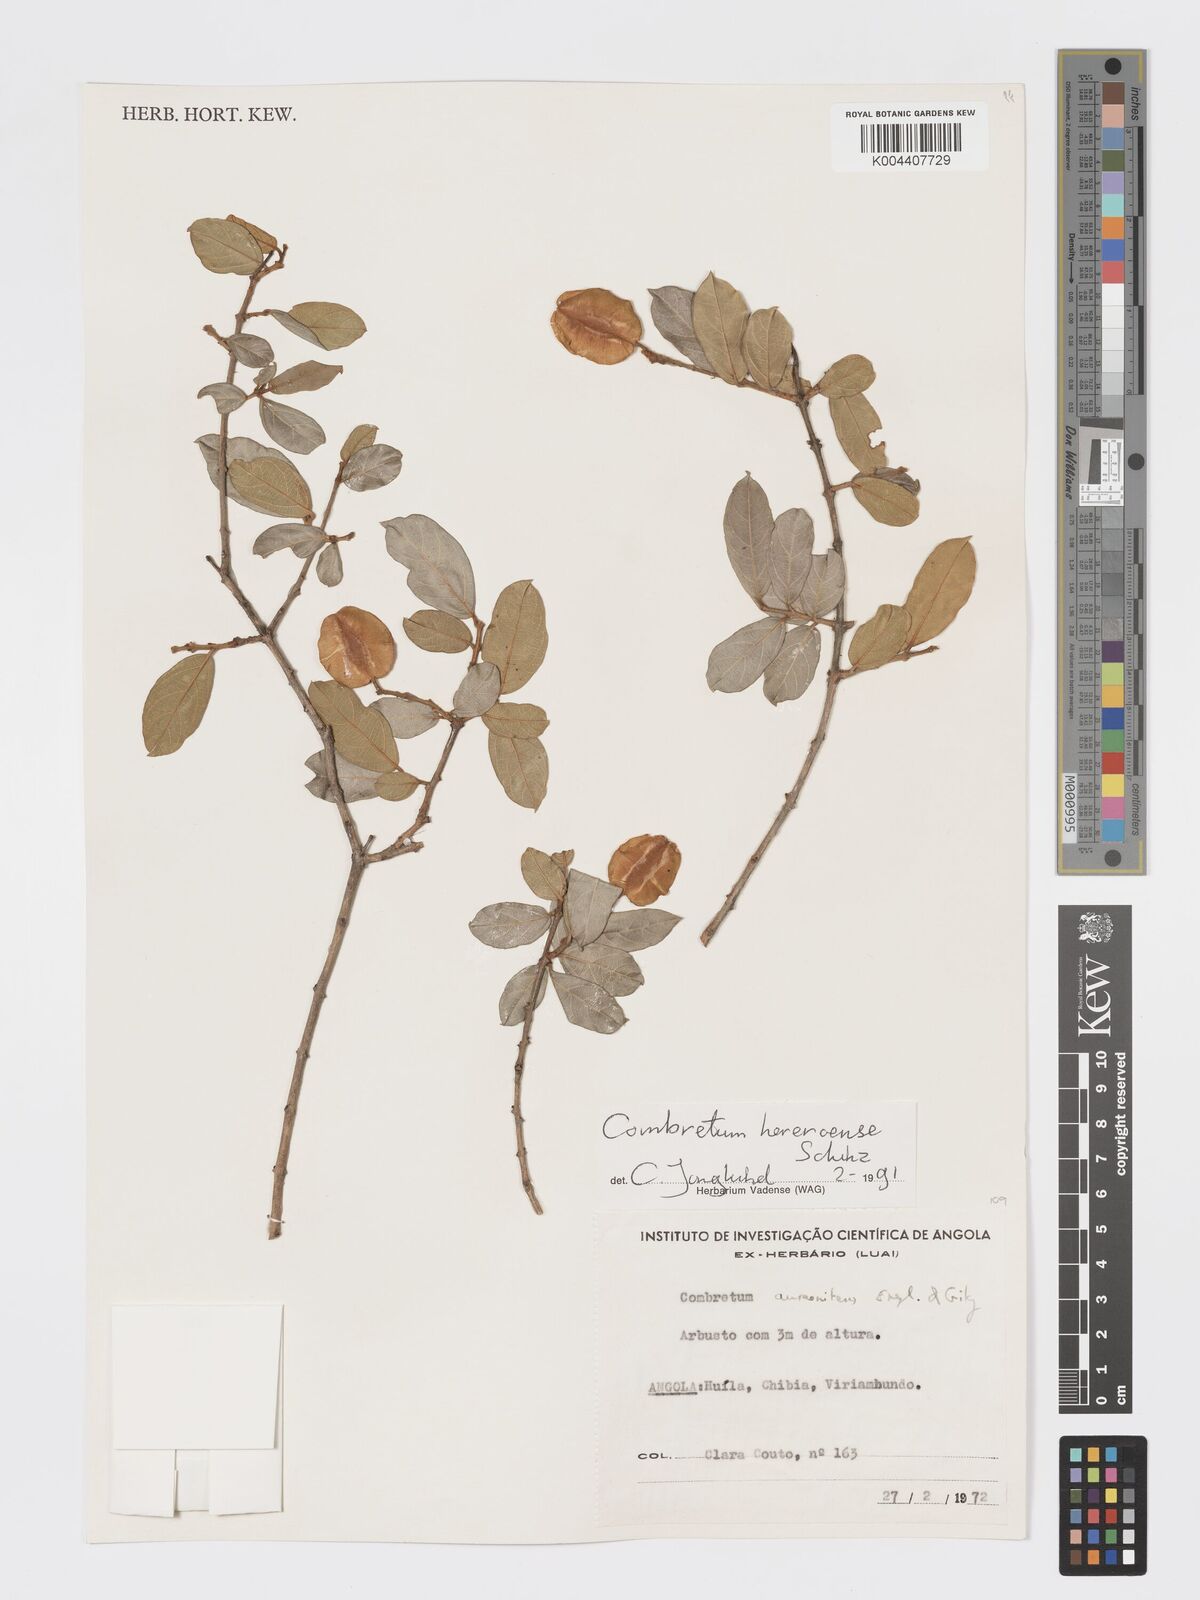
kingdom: Plantae
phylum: Tracheophyta
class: Magnoliopsida
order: Myrtales
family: Combretaceae
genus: Combretum
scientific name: Combretum hereroense
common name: Russet bushwillow
